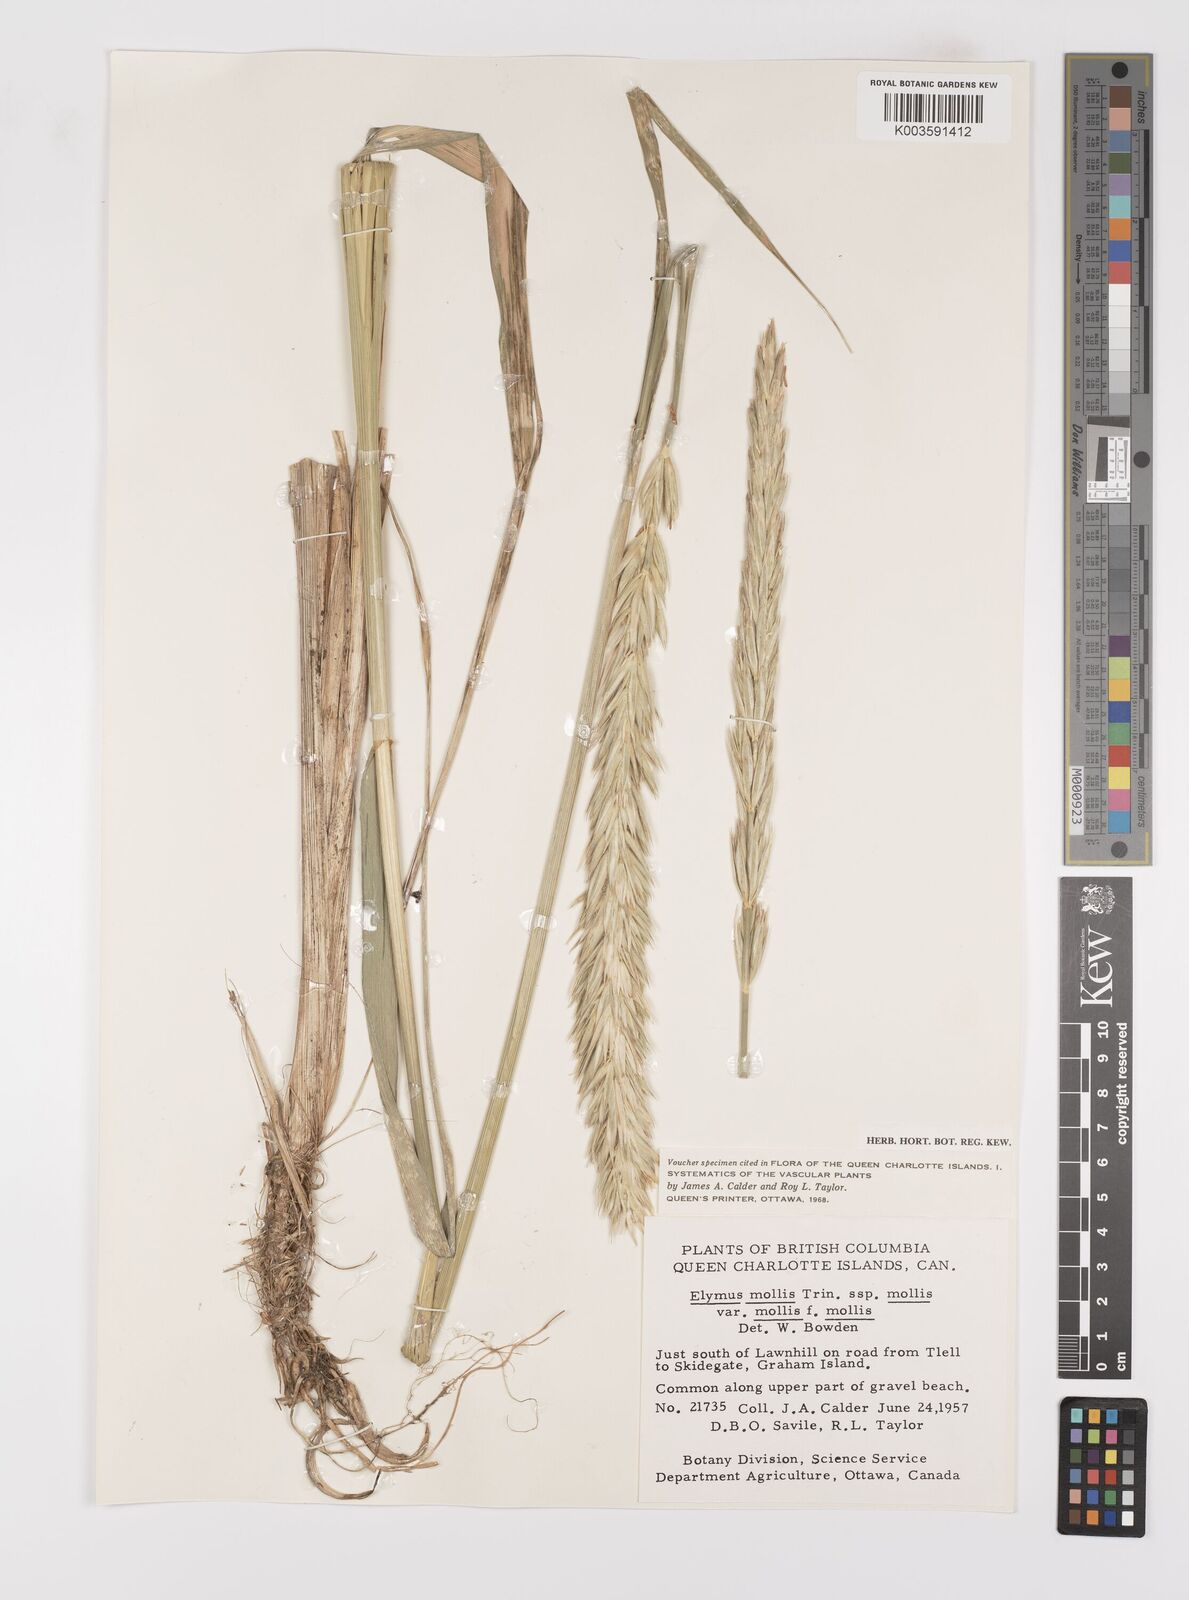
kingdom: Plantae
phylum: Tracheophyta
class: Liliopsida
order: Poales
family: Poaceae
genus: Leymus
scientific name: Leymus mollis
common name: American dune grass
